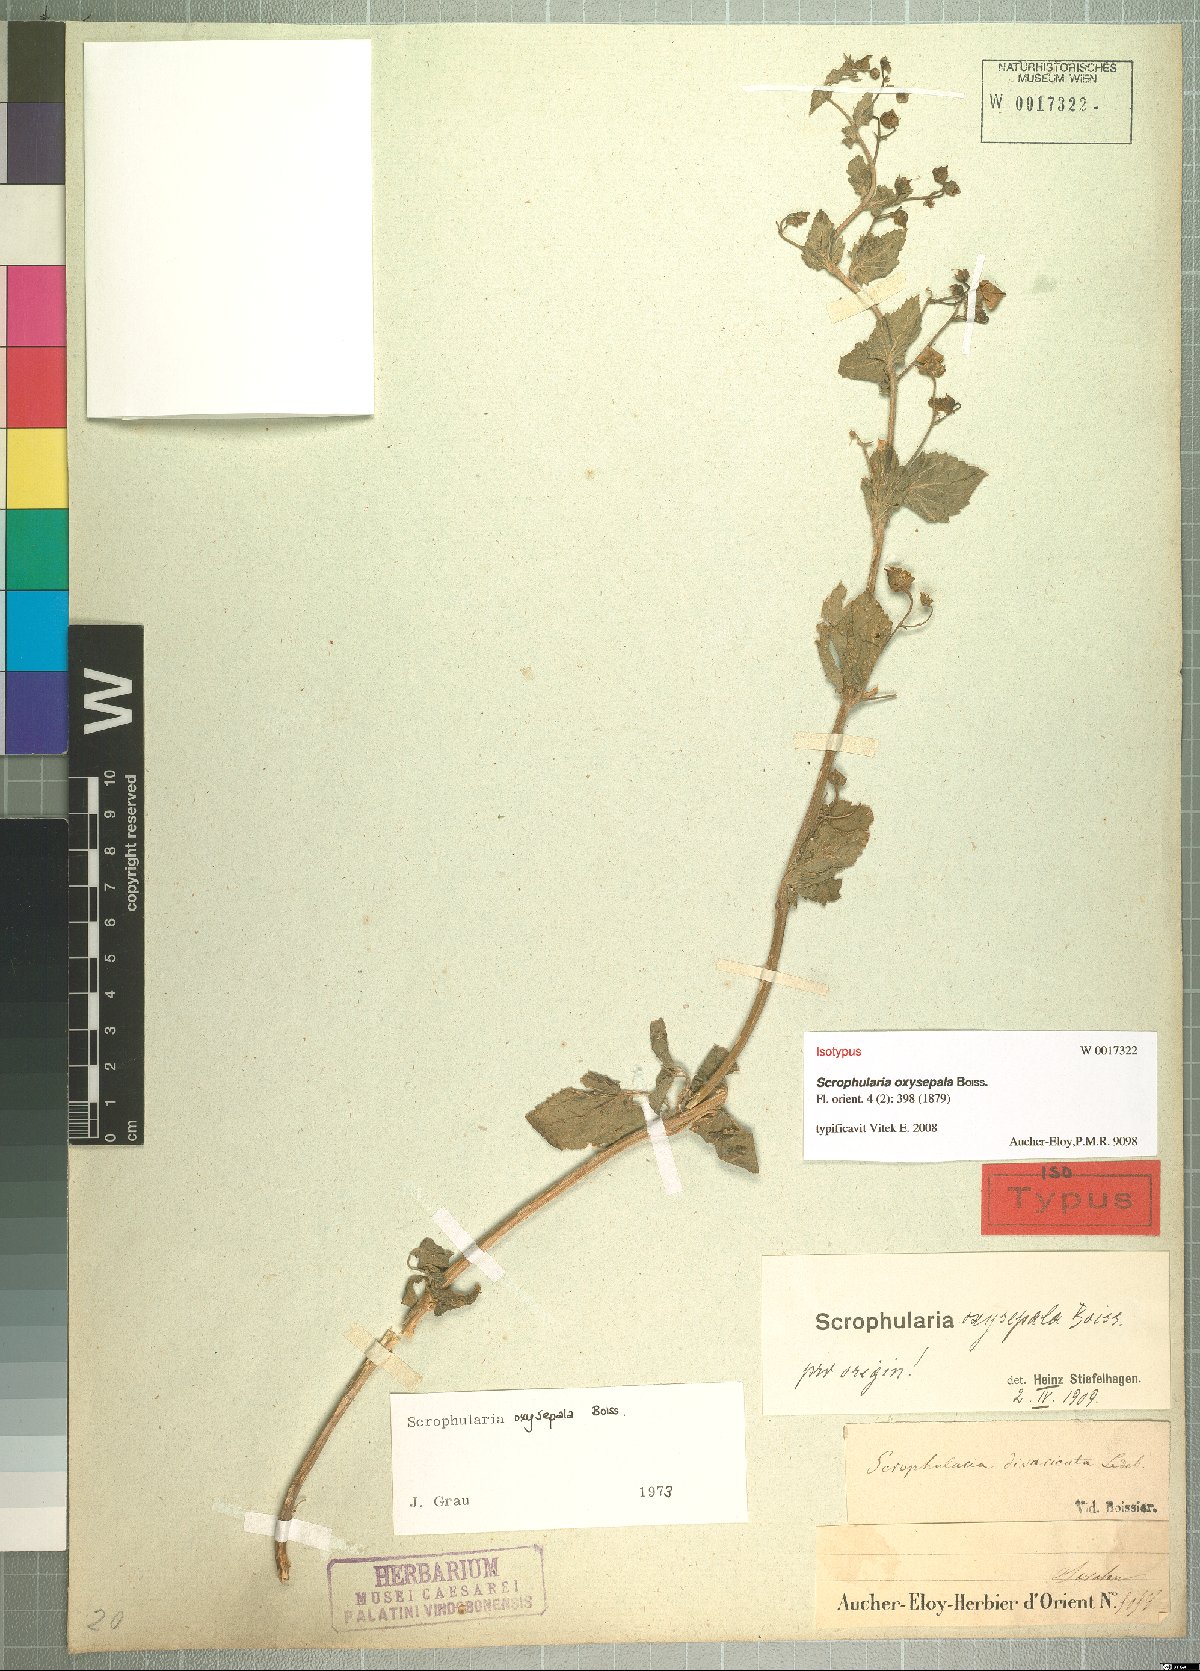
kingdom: Plantae
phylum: Tracheophyta
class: Magnoliopsida
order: Lamiales
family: Scrophulariaceae
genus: Scrophularia
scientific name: Scrophularia oxysepala
